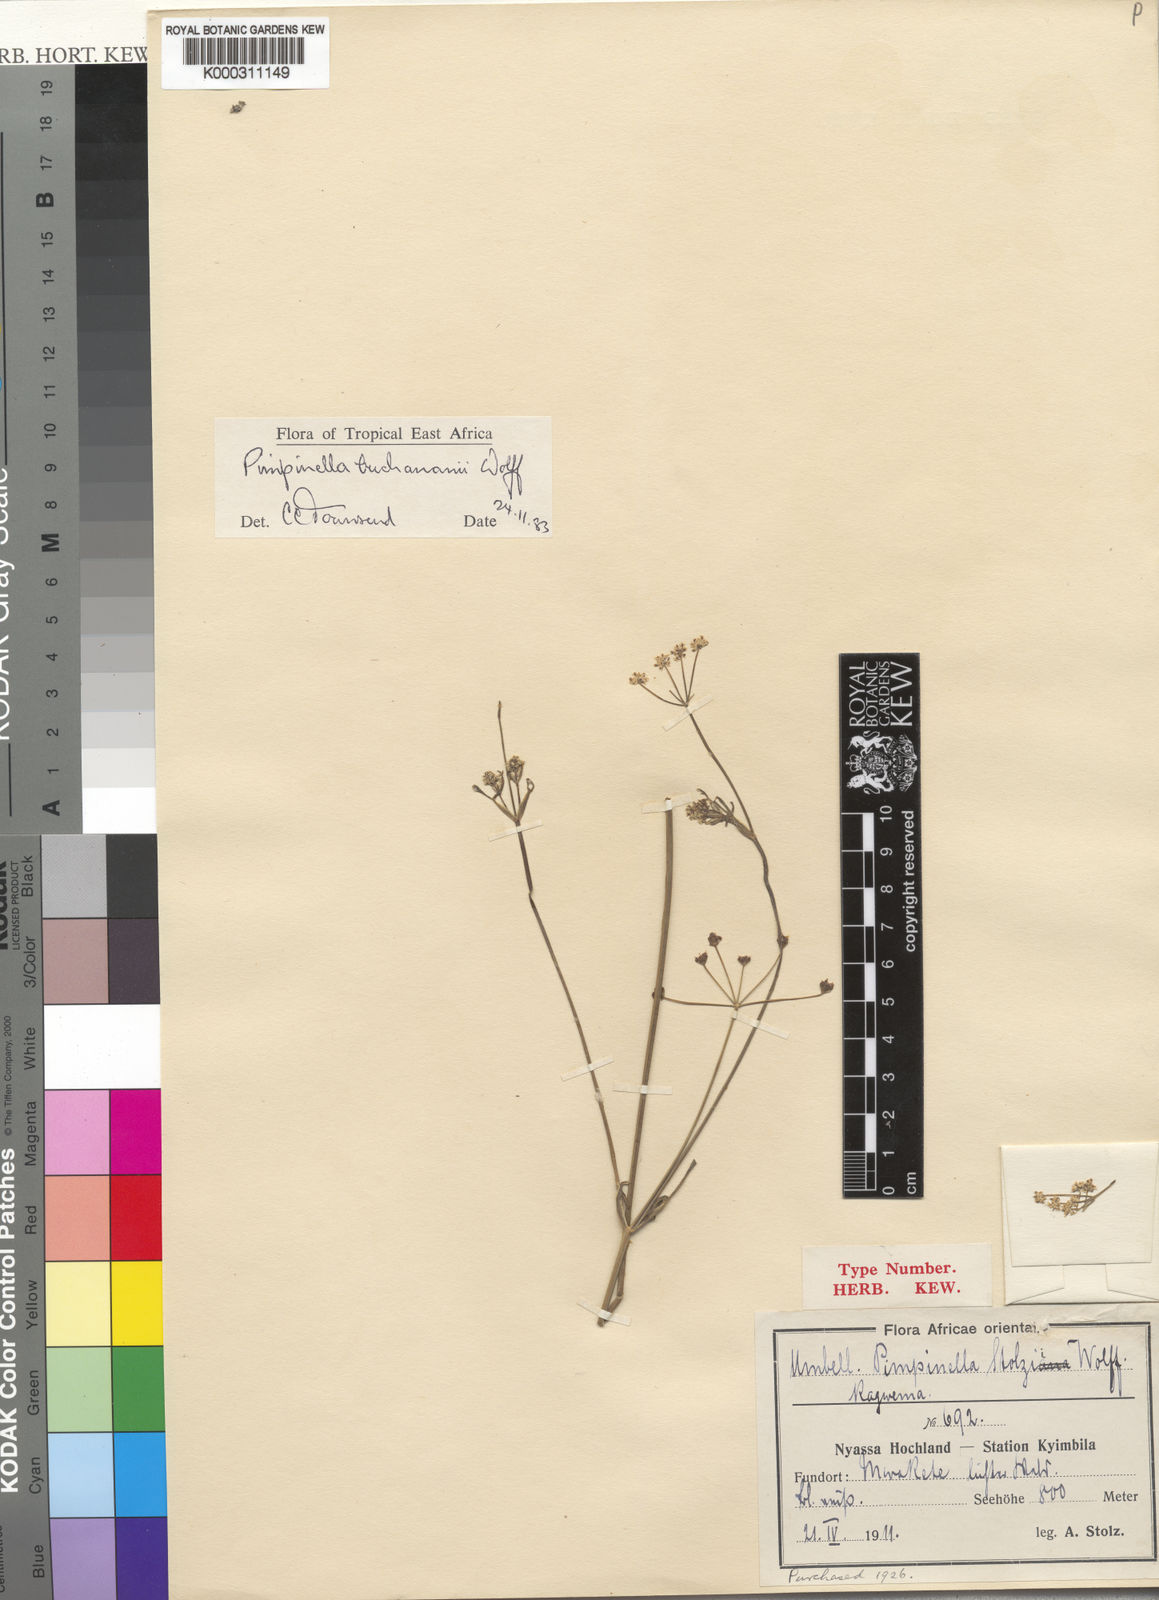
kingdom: Plantae
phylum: Tracheophyta
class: Magnoliopsida
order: Apiales
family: Apiaceae
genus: Pimpinella
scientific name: Pimpinella buchananii
